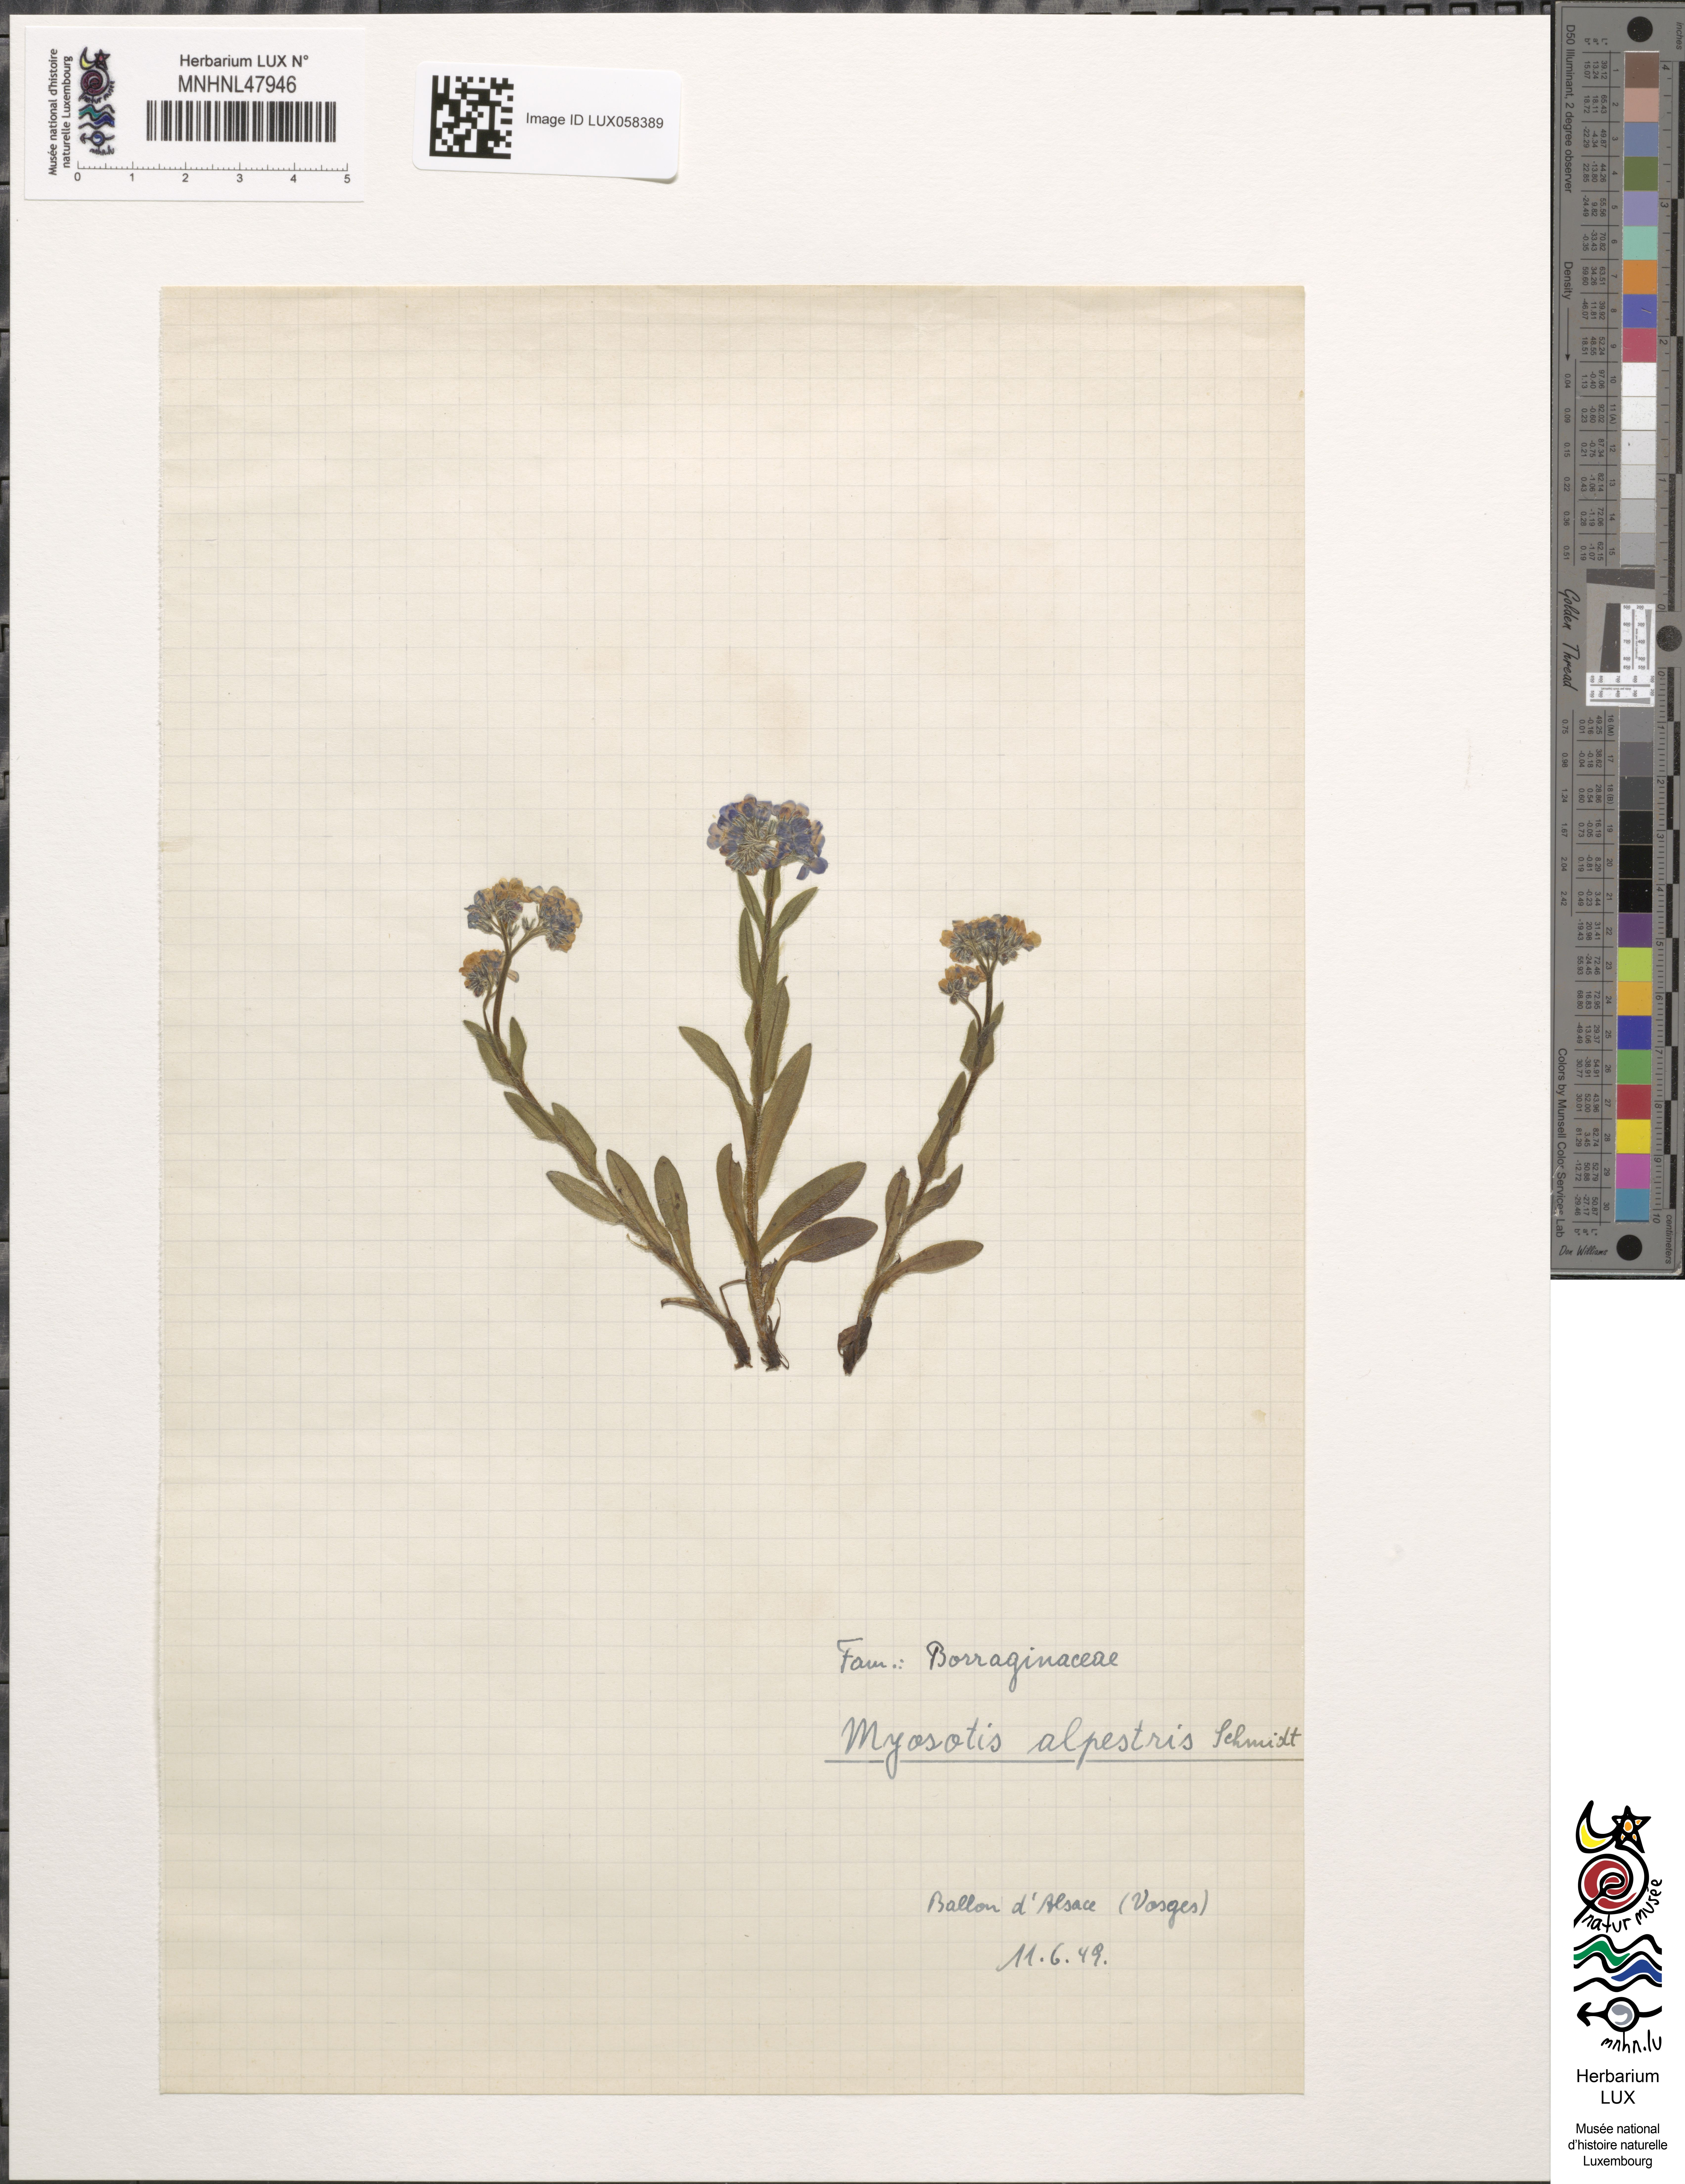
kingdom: Plantae
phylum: Tracheophyta
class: Magnoliopsida
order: Boraginales
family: Boraginaceae
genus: Myosotis
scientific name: Myosotis alpestris
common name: Alpine forget-me-not
